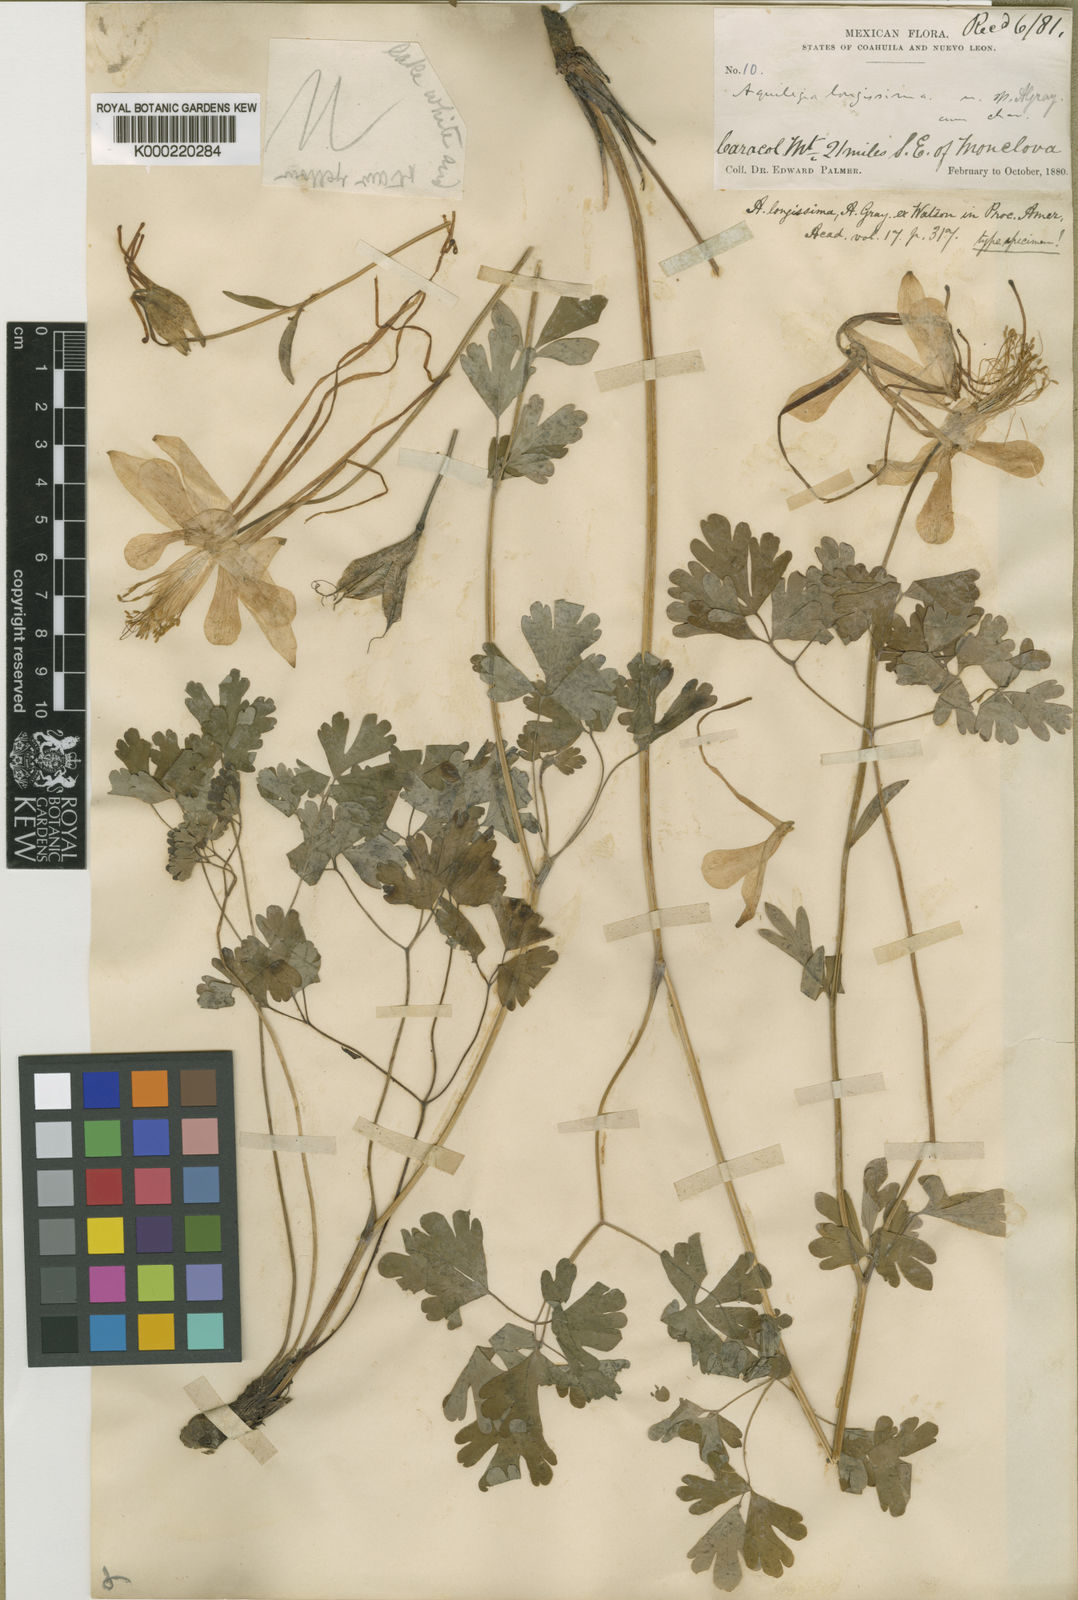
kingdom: Plantae
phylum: Tracheophyta
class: Magnoliopsida
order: Ranunculales
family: Ranunculaceae
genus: Aquilegia
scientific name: Aquilegia longissima
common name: Long-spur columbine
